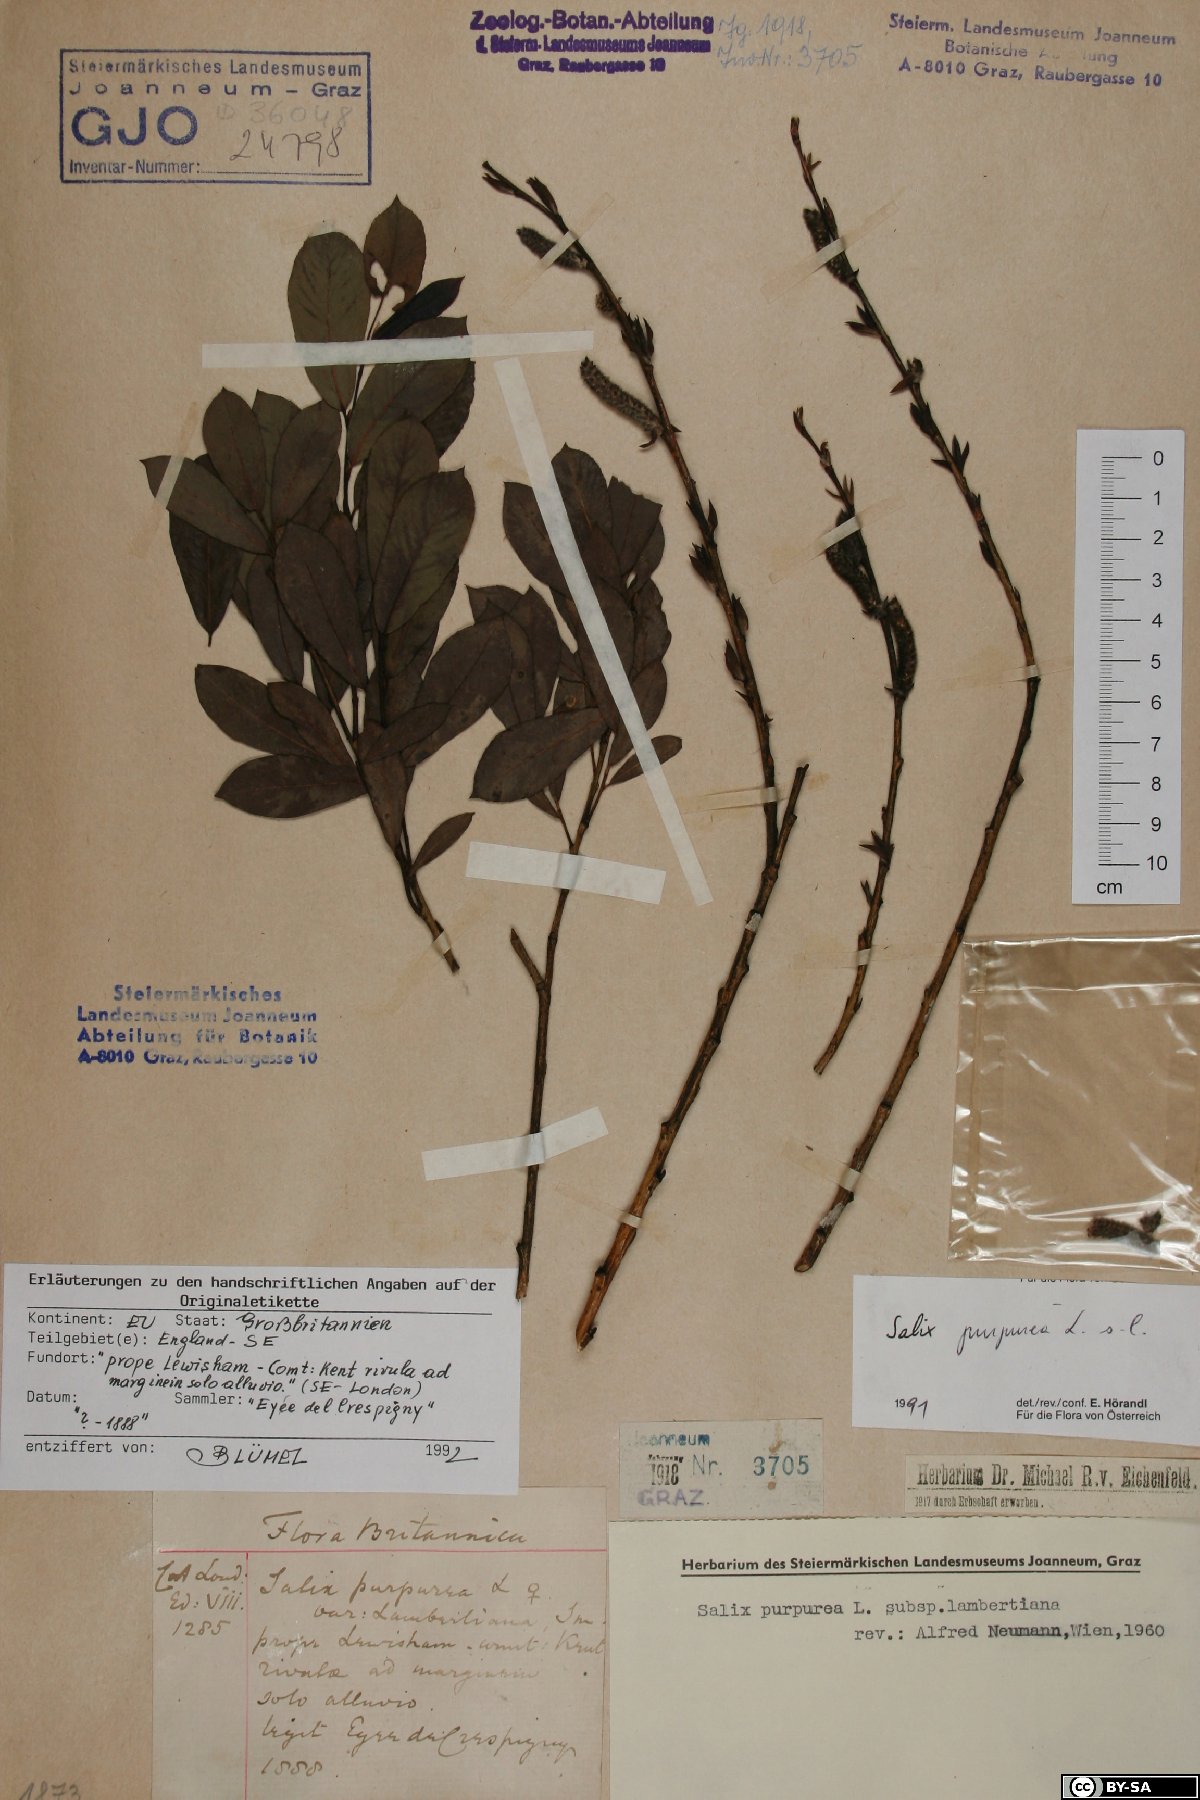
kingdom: Plantae
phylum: Tracheophyta
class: Magnoliopsida
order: Malpighiales
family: Salicaceae
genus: Salix
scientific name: Salix purpurea
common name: Purple willow
